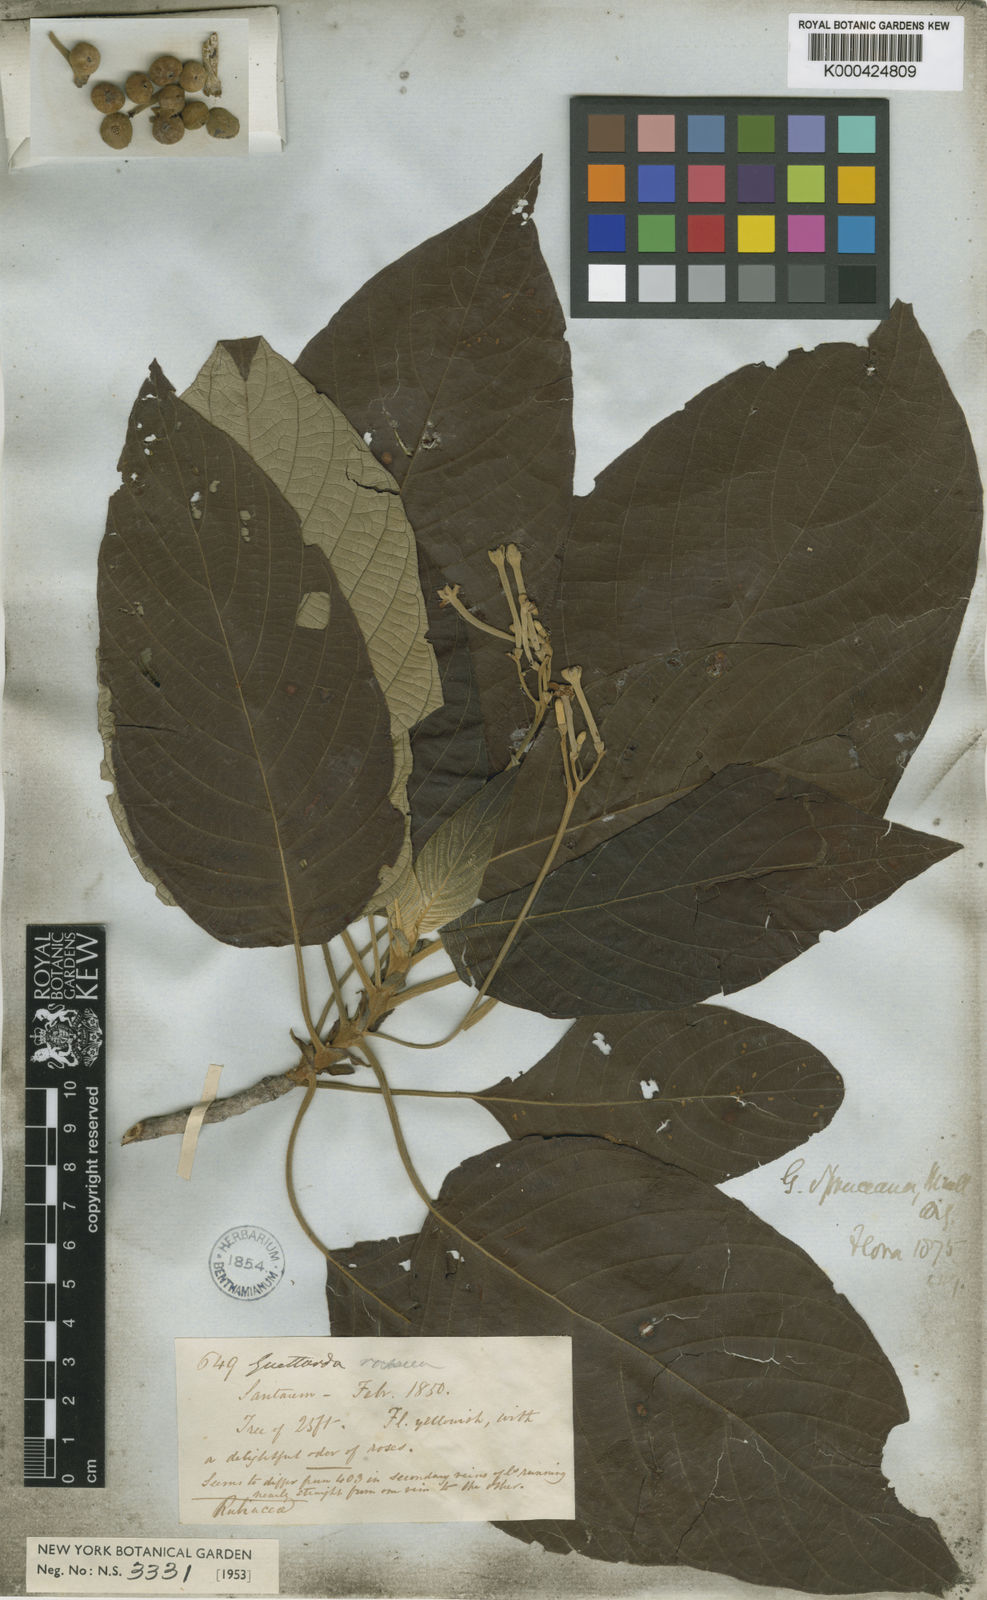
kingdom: Plantae
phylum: Tracheophyta
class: Magnoliopsida
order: Gentianales
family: Rubiaceae
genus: Guettarda
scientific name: Guettarda
